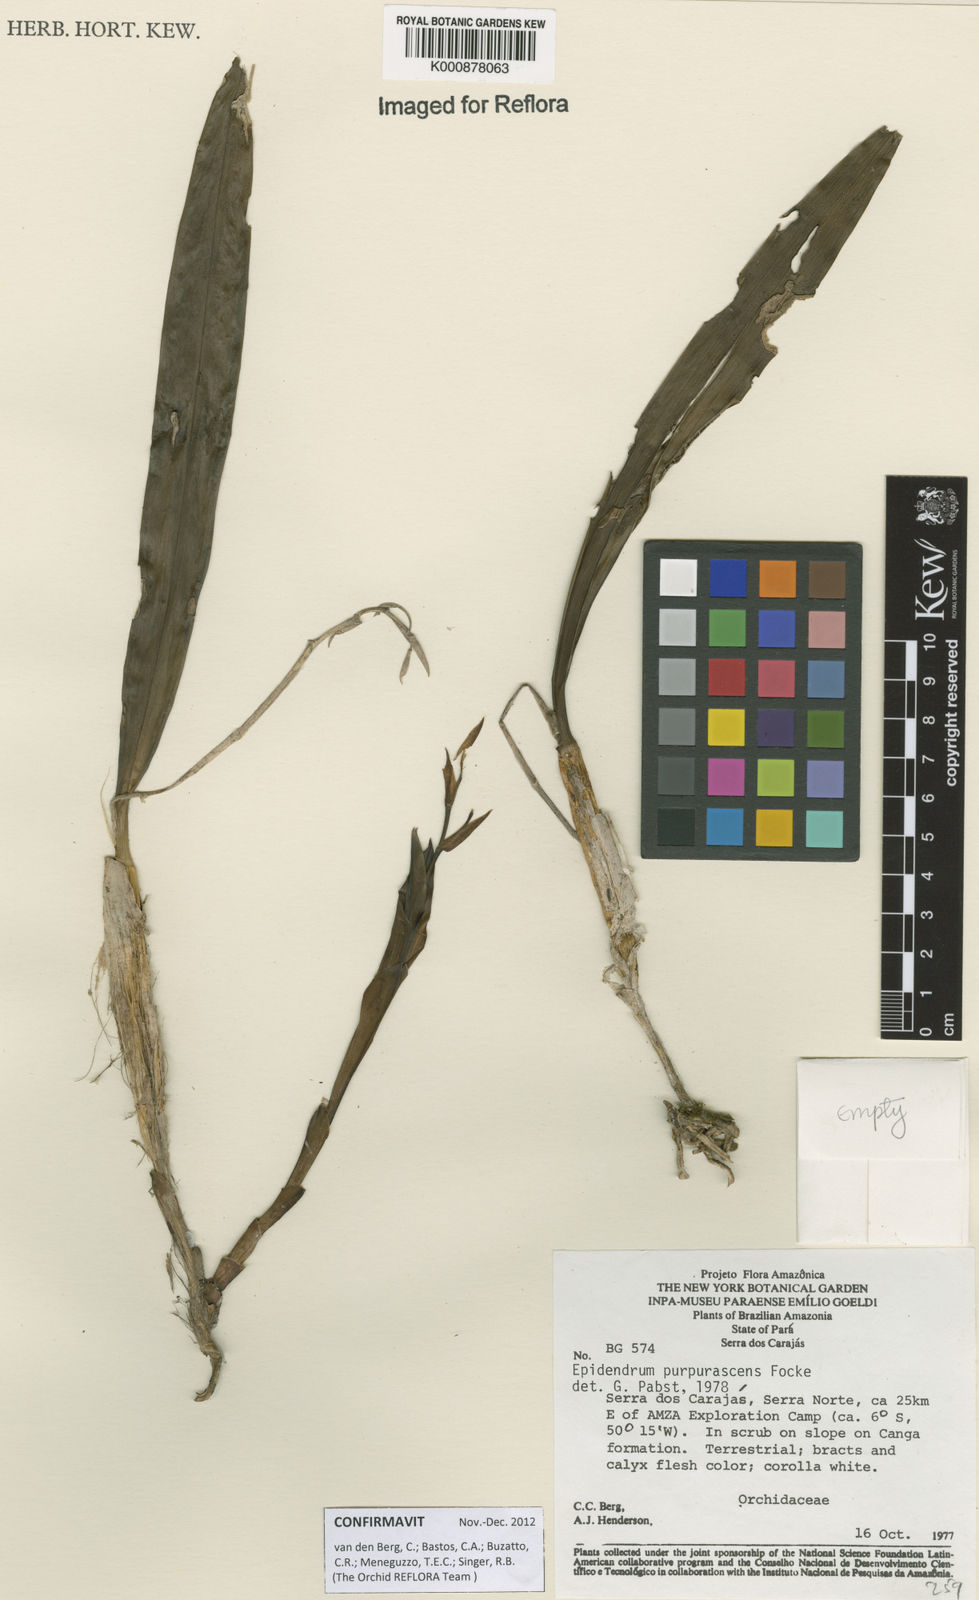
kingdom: Plantae
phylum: Tracheophyta
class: Liliopsida
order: Asparagales
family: Orchidaceae
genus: Epidendrum
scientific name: Epidendrum purpurascens
